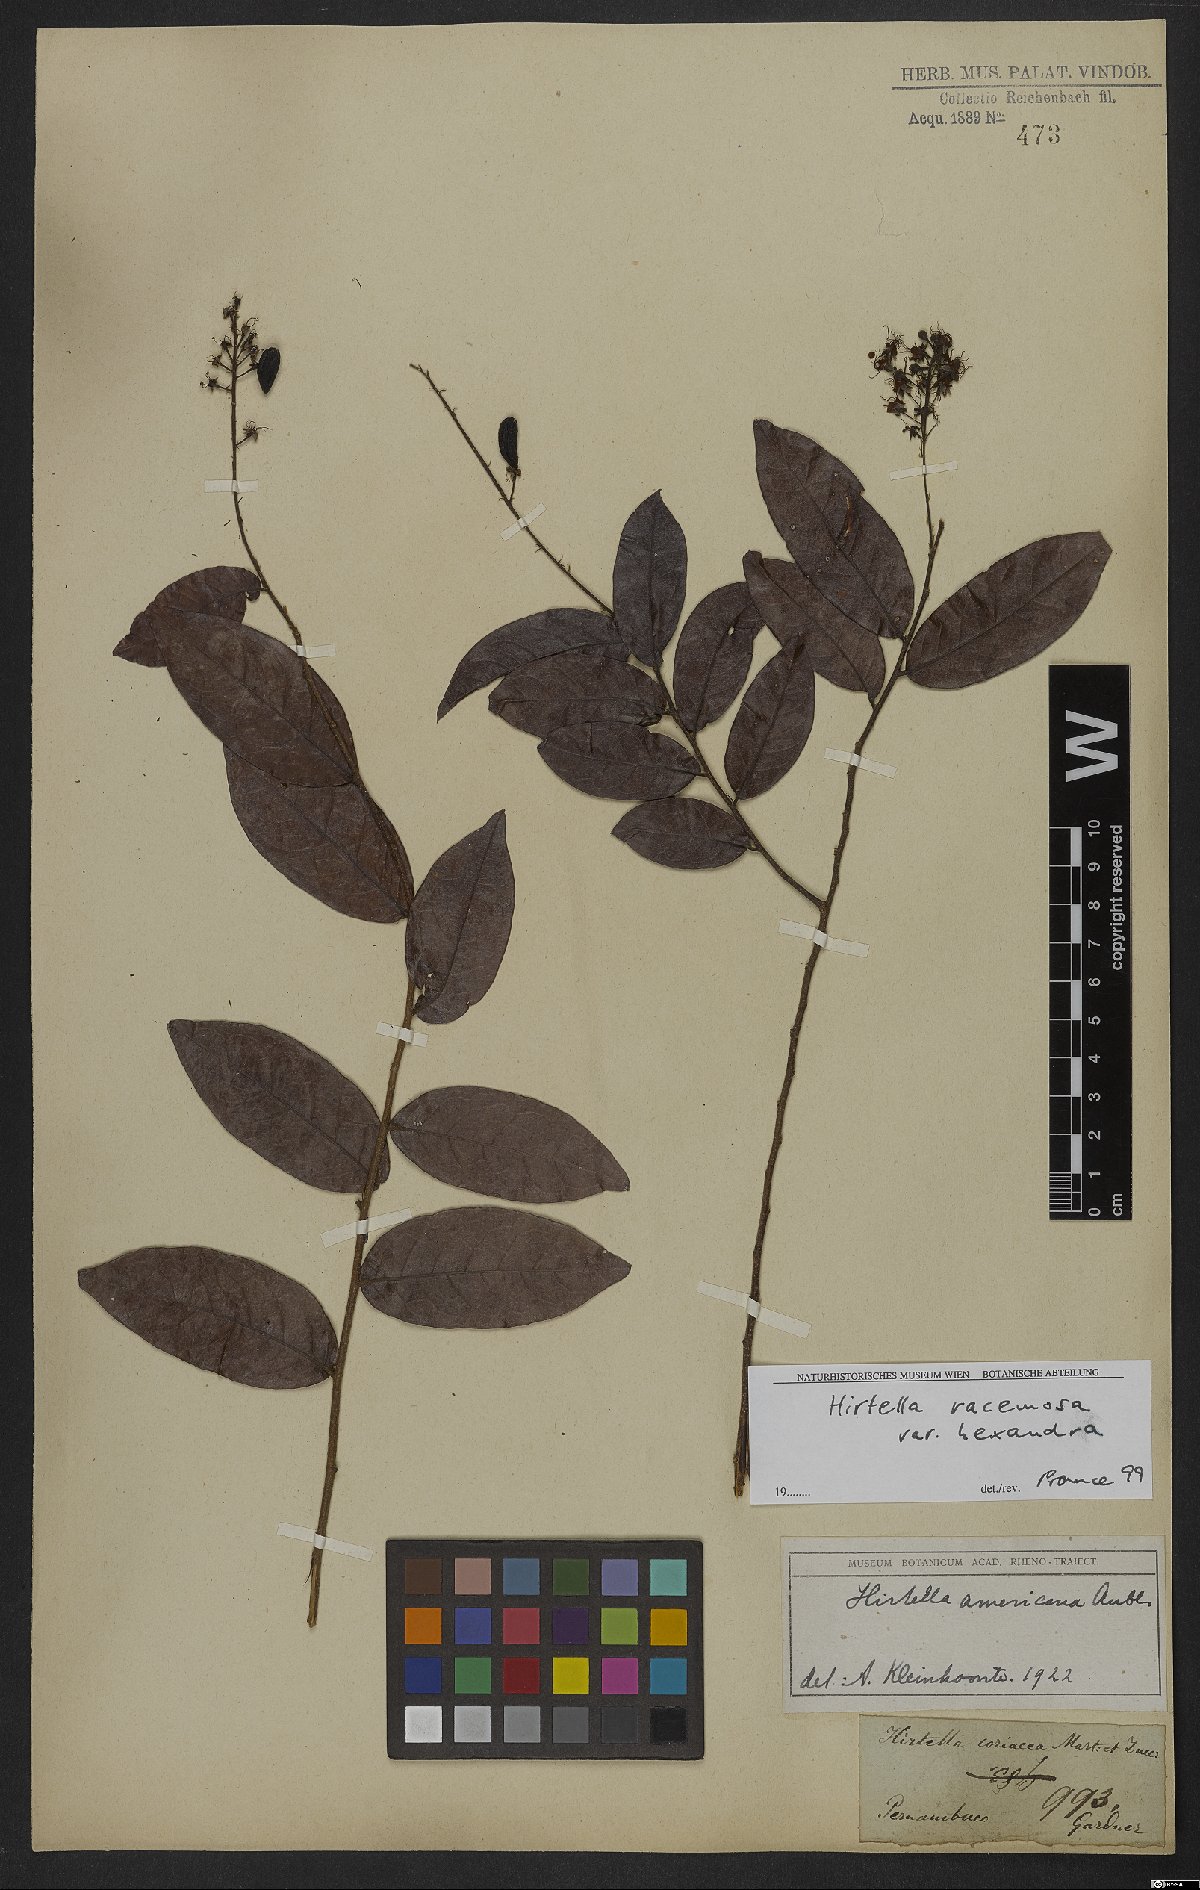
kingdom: Plantae
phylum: Tracheophyta
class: Magnoliopsida
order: Malpighiales
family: Chrysobalanaceae
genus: Hirtella
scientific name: Hirtella racemosa
